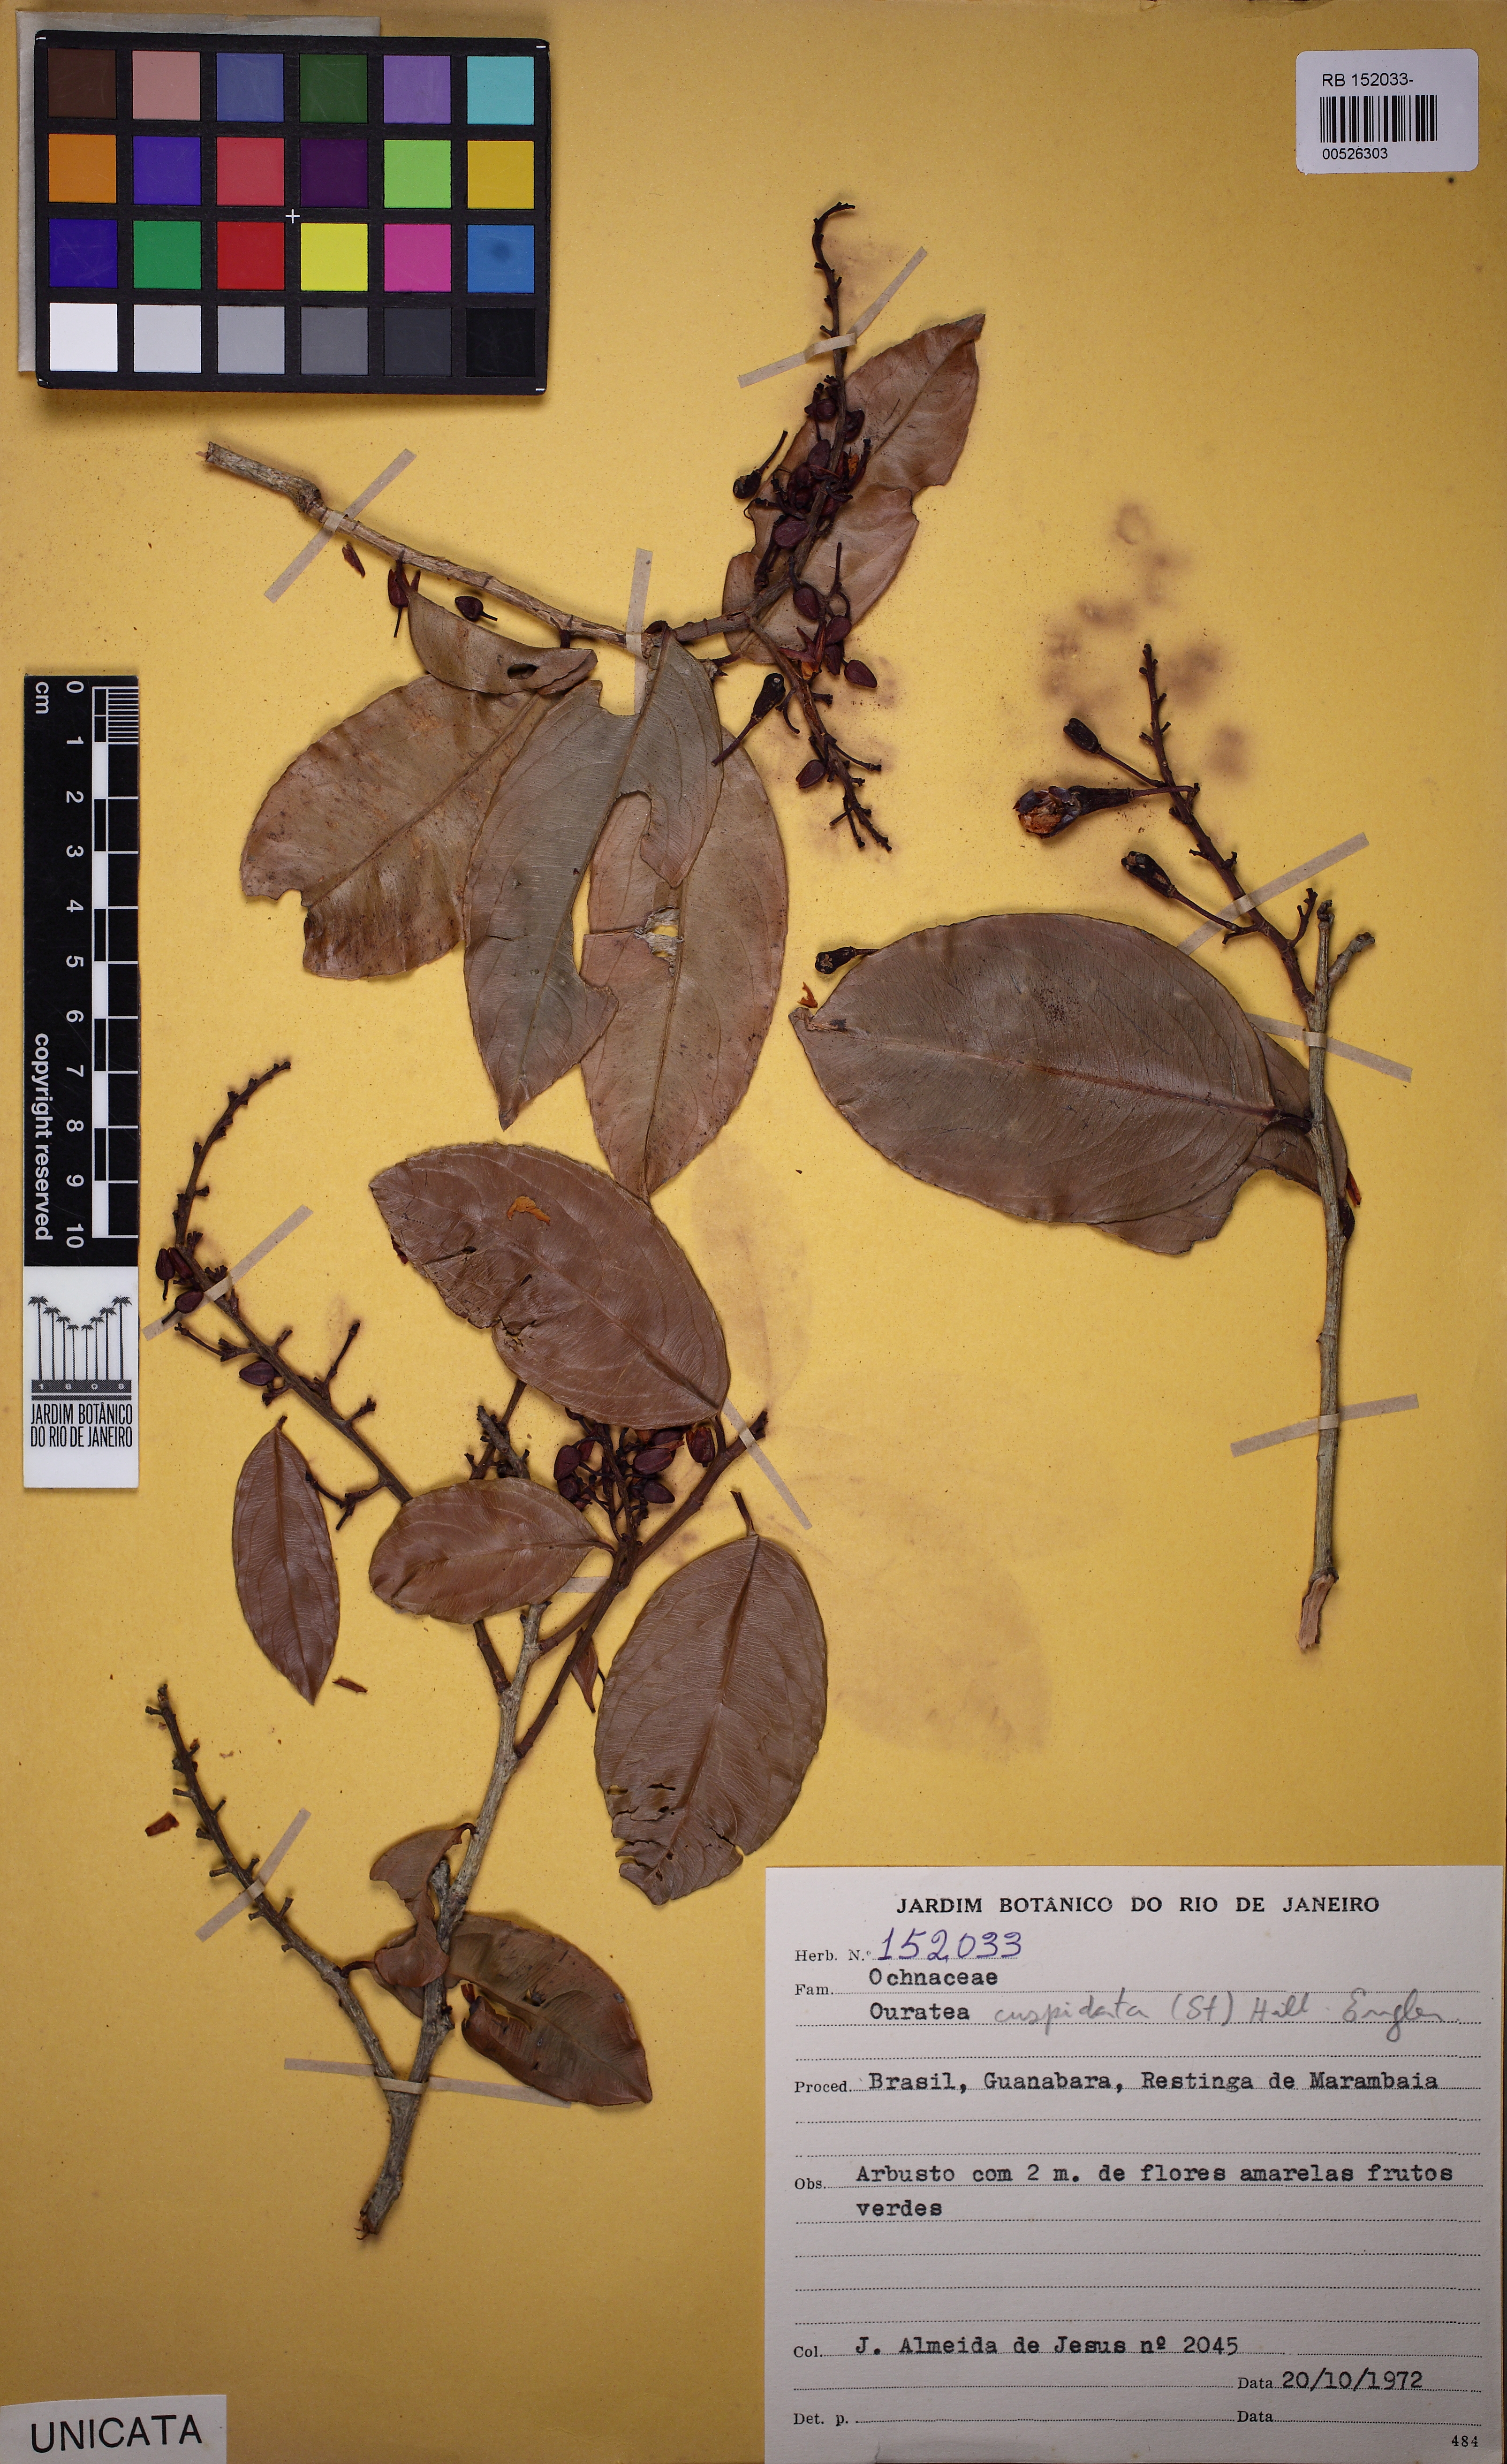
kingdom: Plantae
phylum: Tracheophyta
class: Magnoliopsida
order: Malpighiales
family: Ochnaceae
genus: Ouratea
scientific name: Ouratea cuspidata
